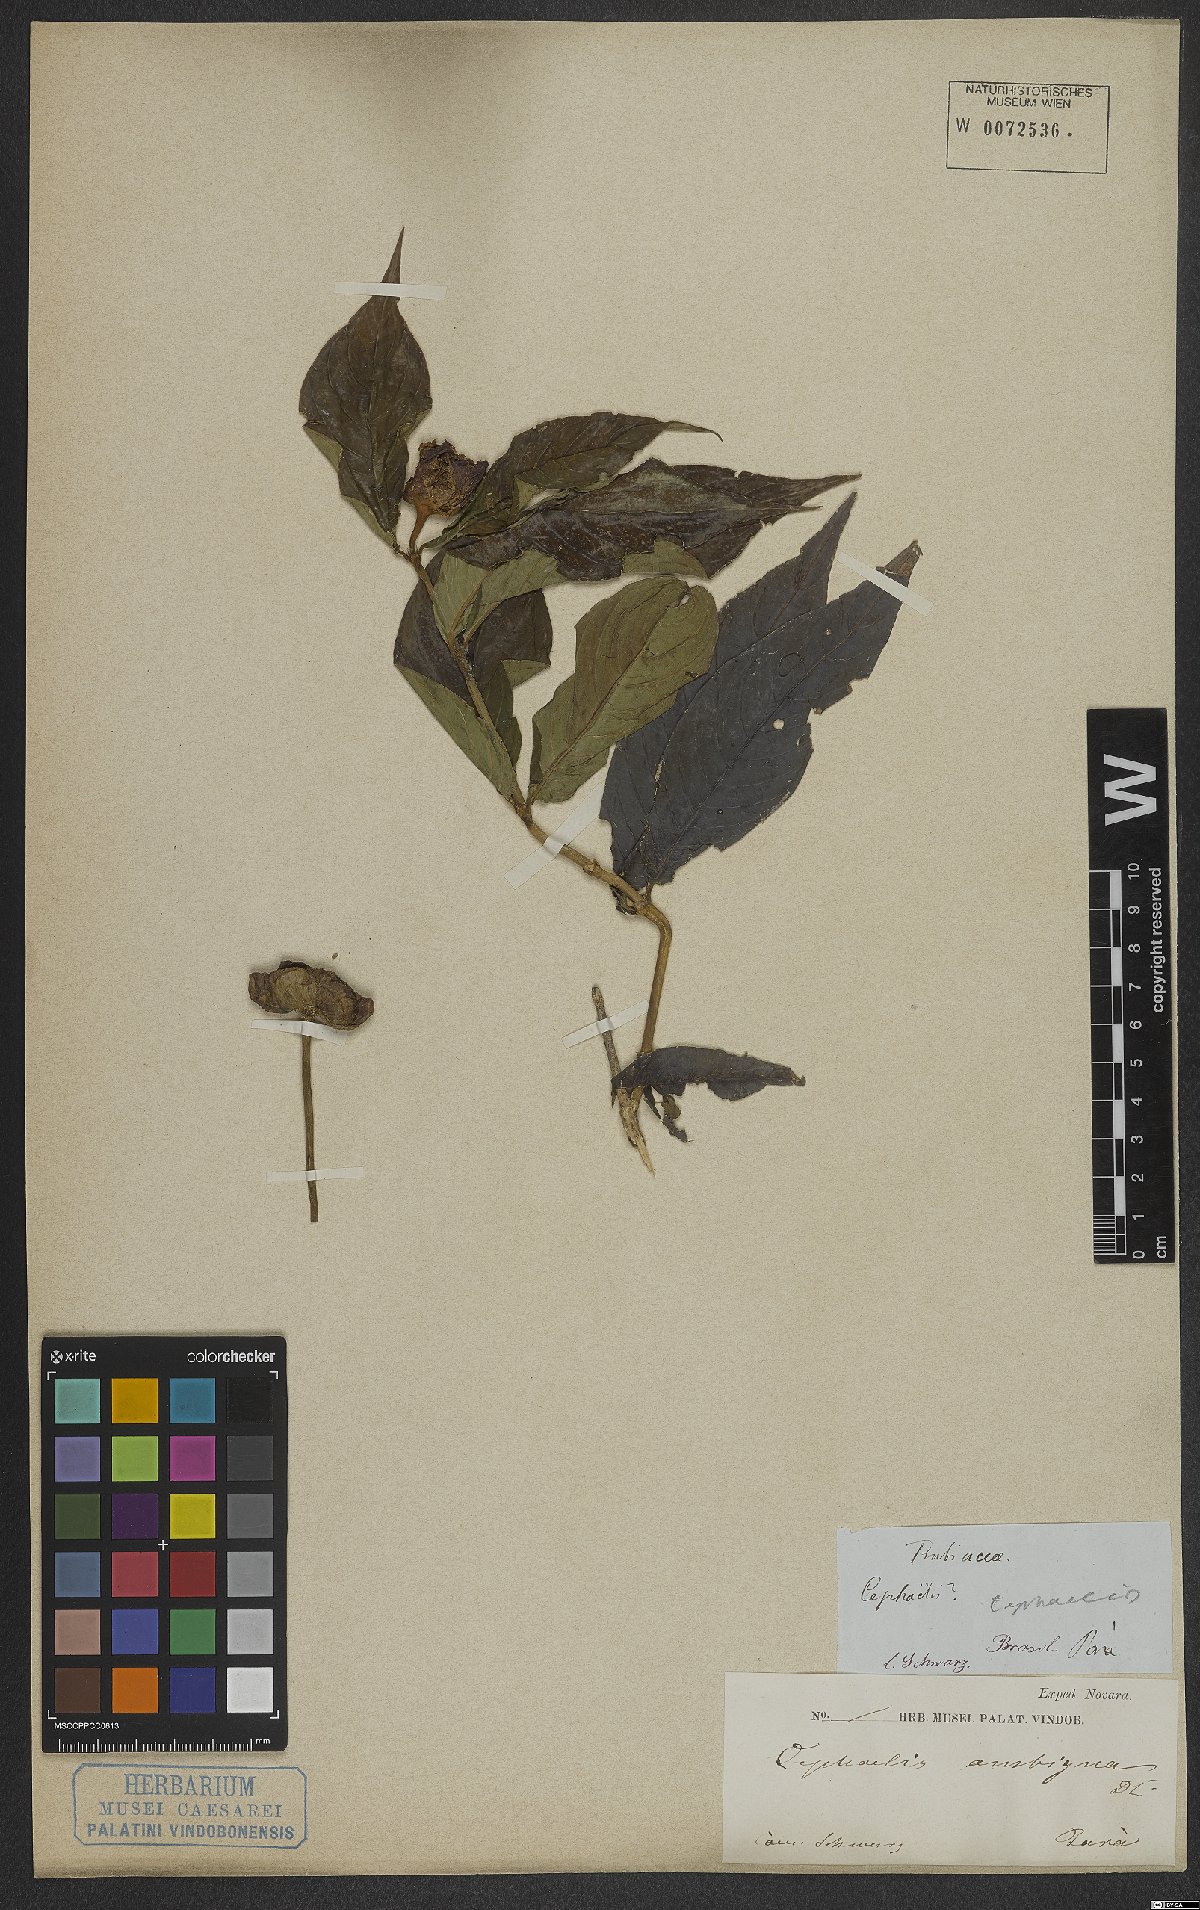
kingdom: Plantae
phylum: Tracheophyta
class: Magnoliopsida
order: Gentianales
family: Rubiaceae
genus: Psychotria
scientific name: Psychotria salzmanniana
